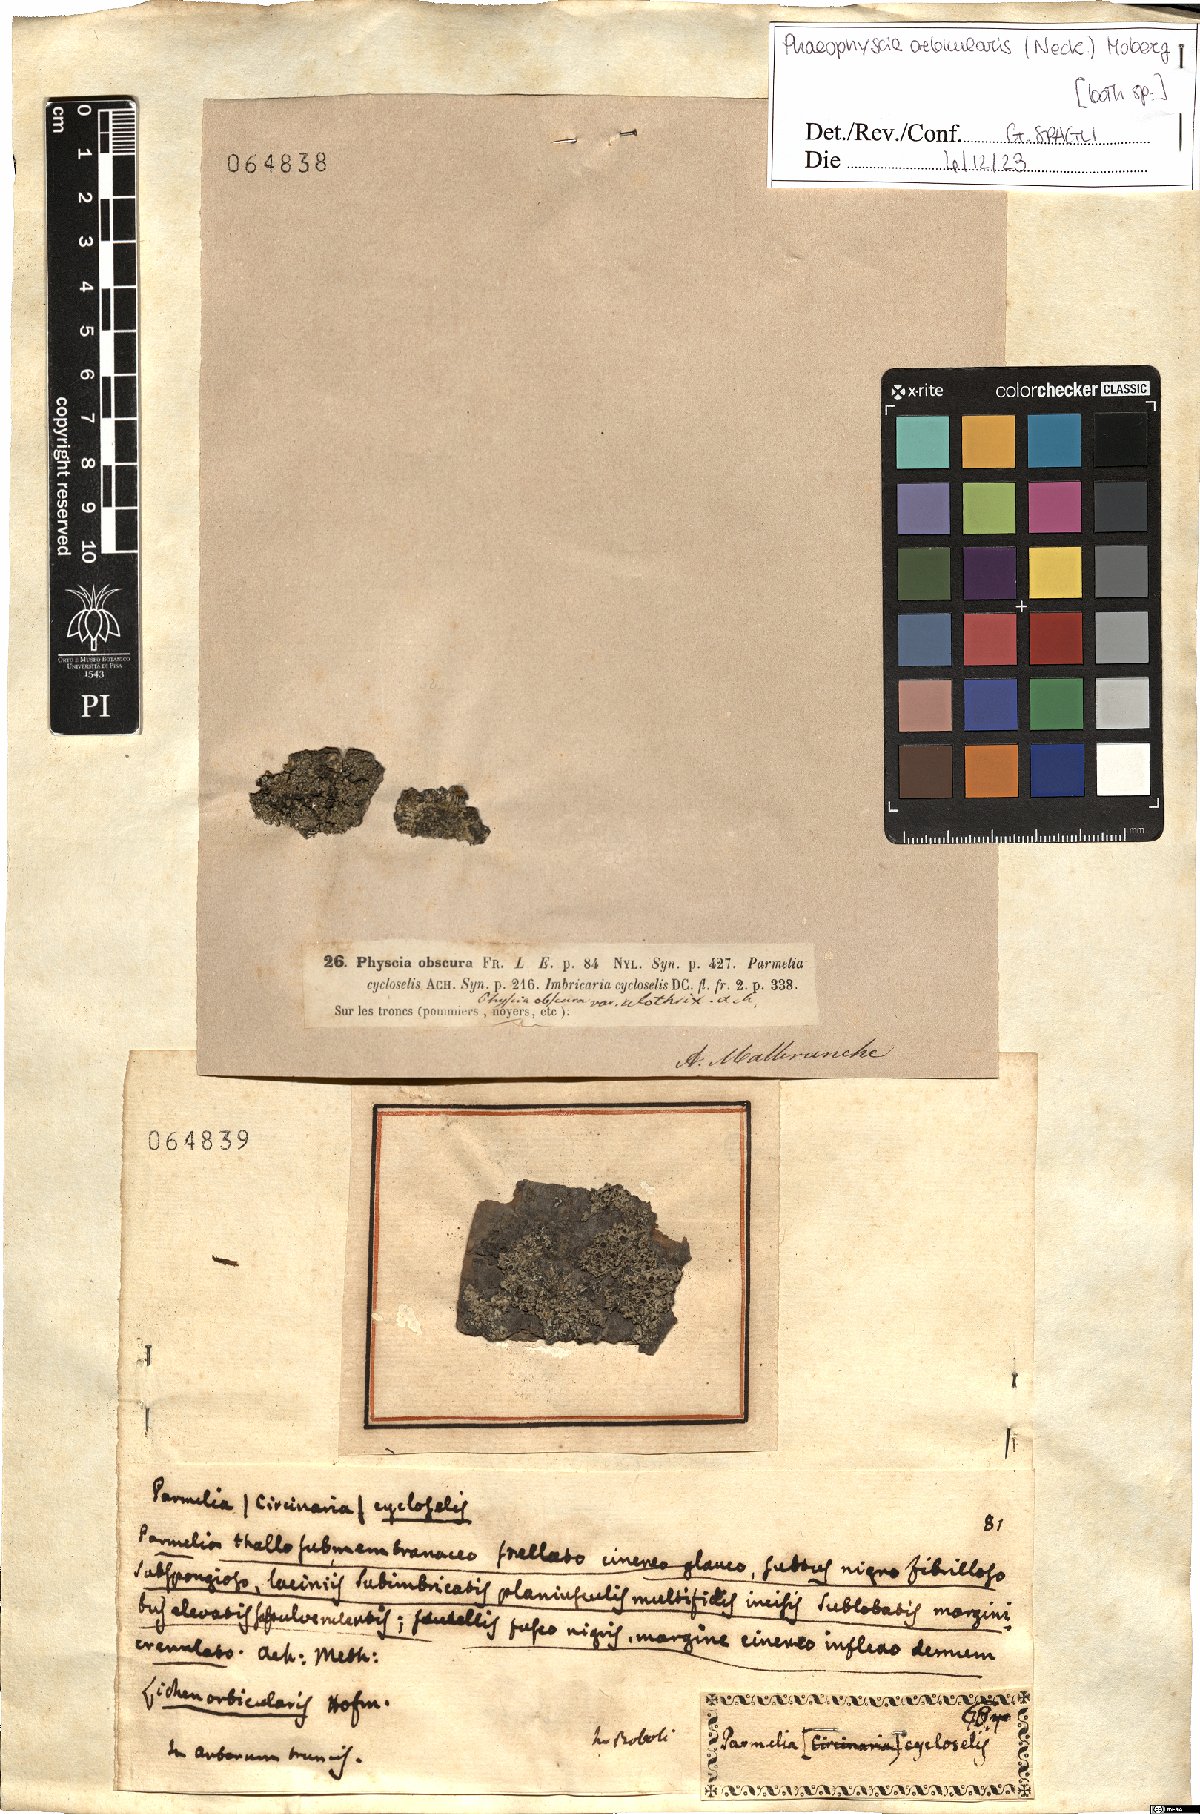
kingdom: Fungi
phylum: Ascomycota
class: Lecanoromycetes
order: Caliciales
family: Physciaceae
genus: Phaeophyscia
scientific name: Phaeophyscia orbicularis
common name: Mealy shadow lichen
